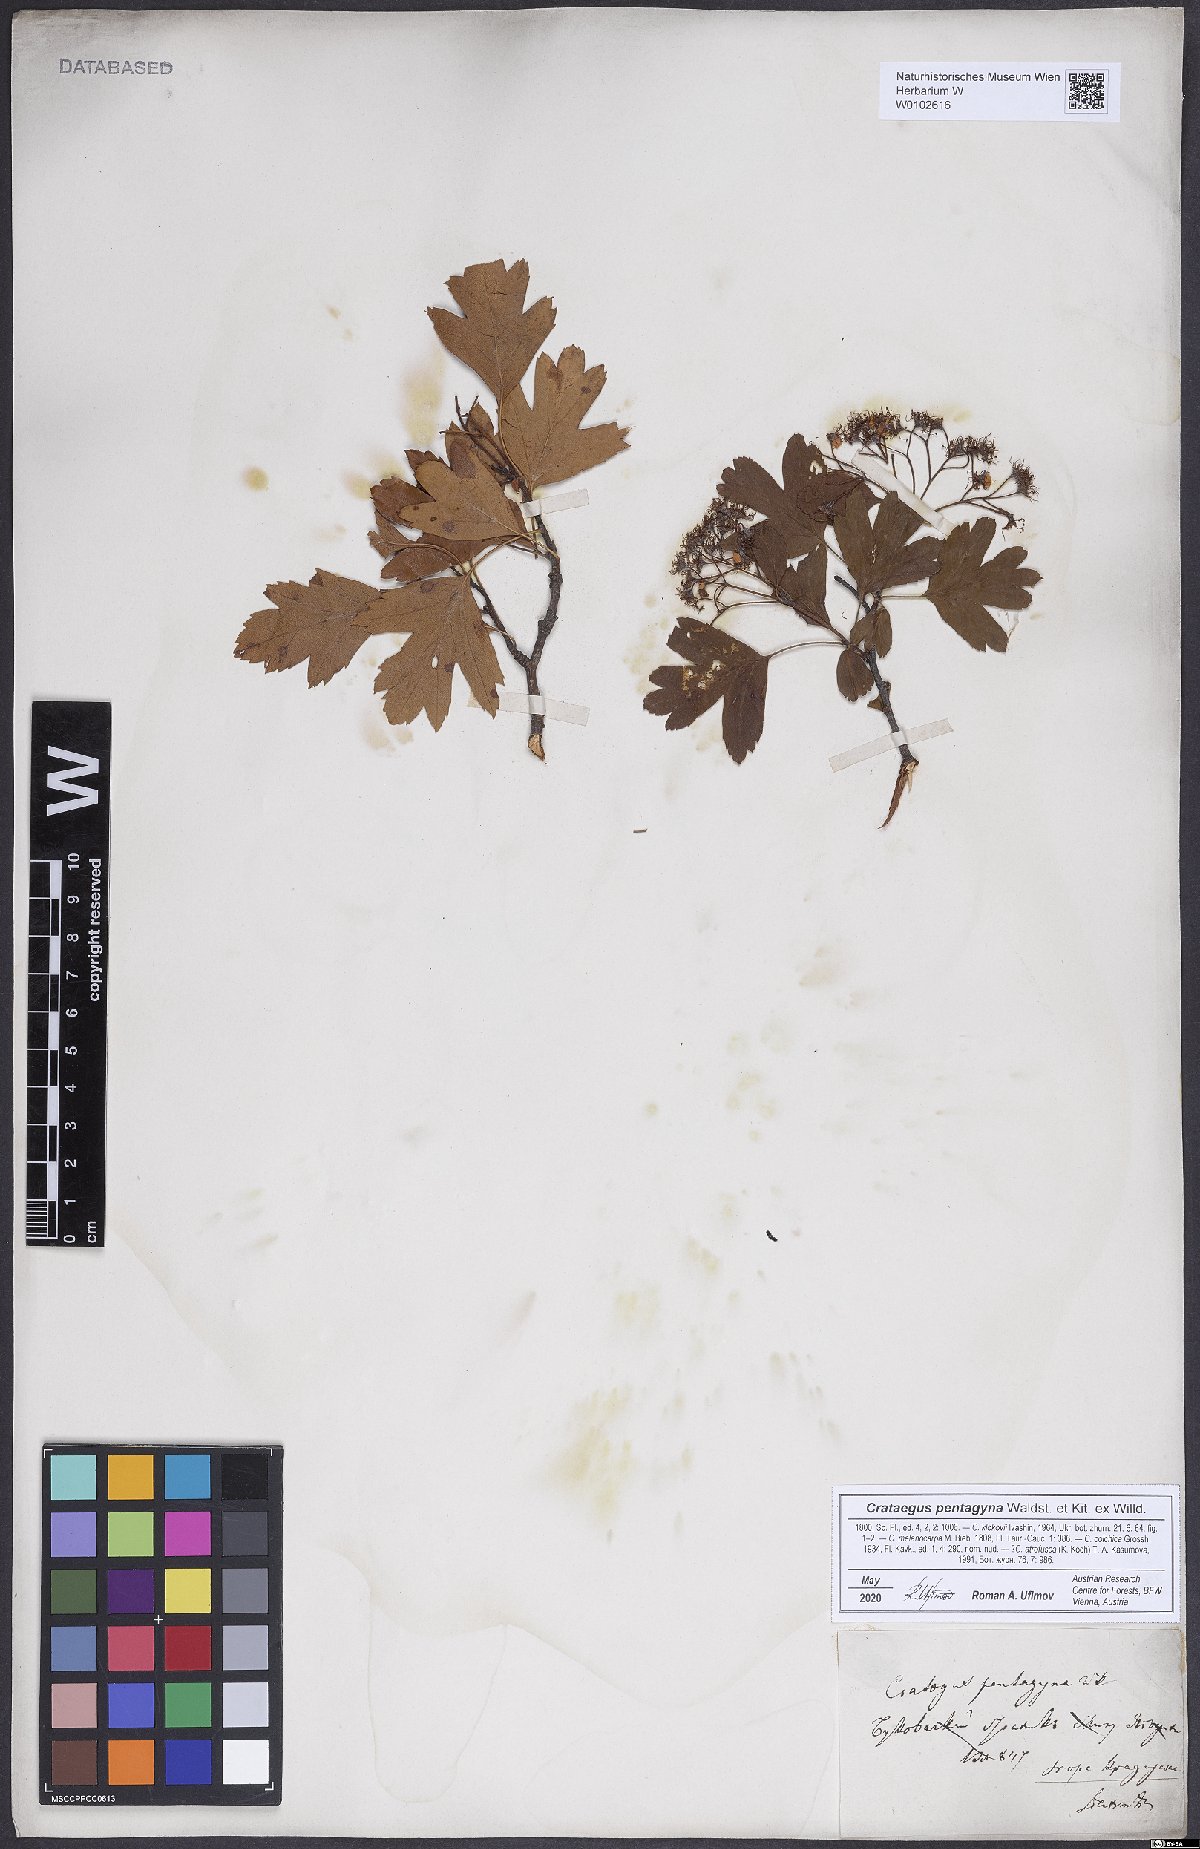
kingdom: Plantae
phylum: Tracheophyta
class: Magnoliopsida
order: Rosales
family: Rosaceae
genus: Crataegus
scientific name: Crataegus pentagyna
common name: Small-flowered black hawthorn
